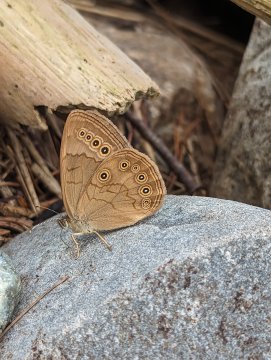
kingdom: Animalia
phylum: Arthropoda
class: Insecta
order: Lepidoptera
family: Nymphalidae
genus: Lethe
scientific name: Lethe eurydice
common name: Eyed Brown
